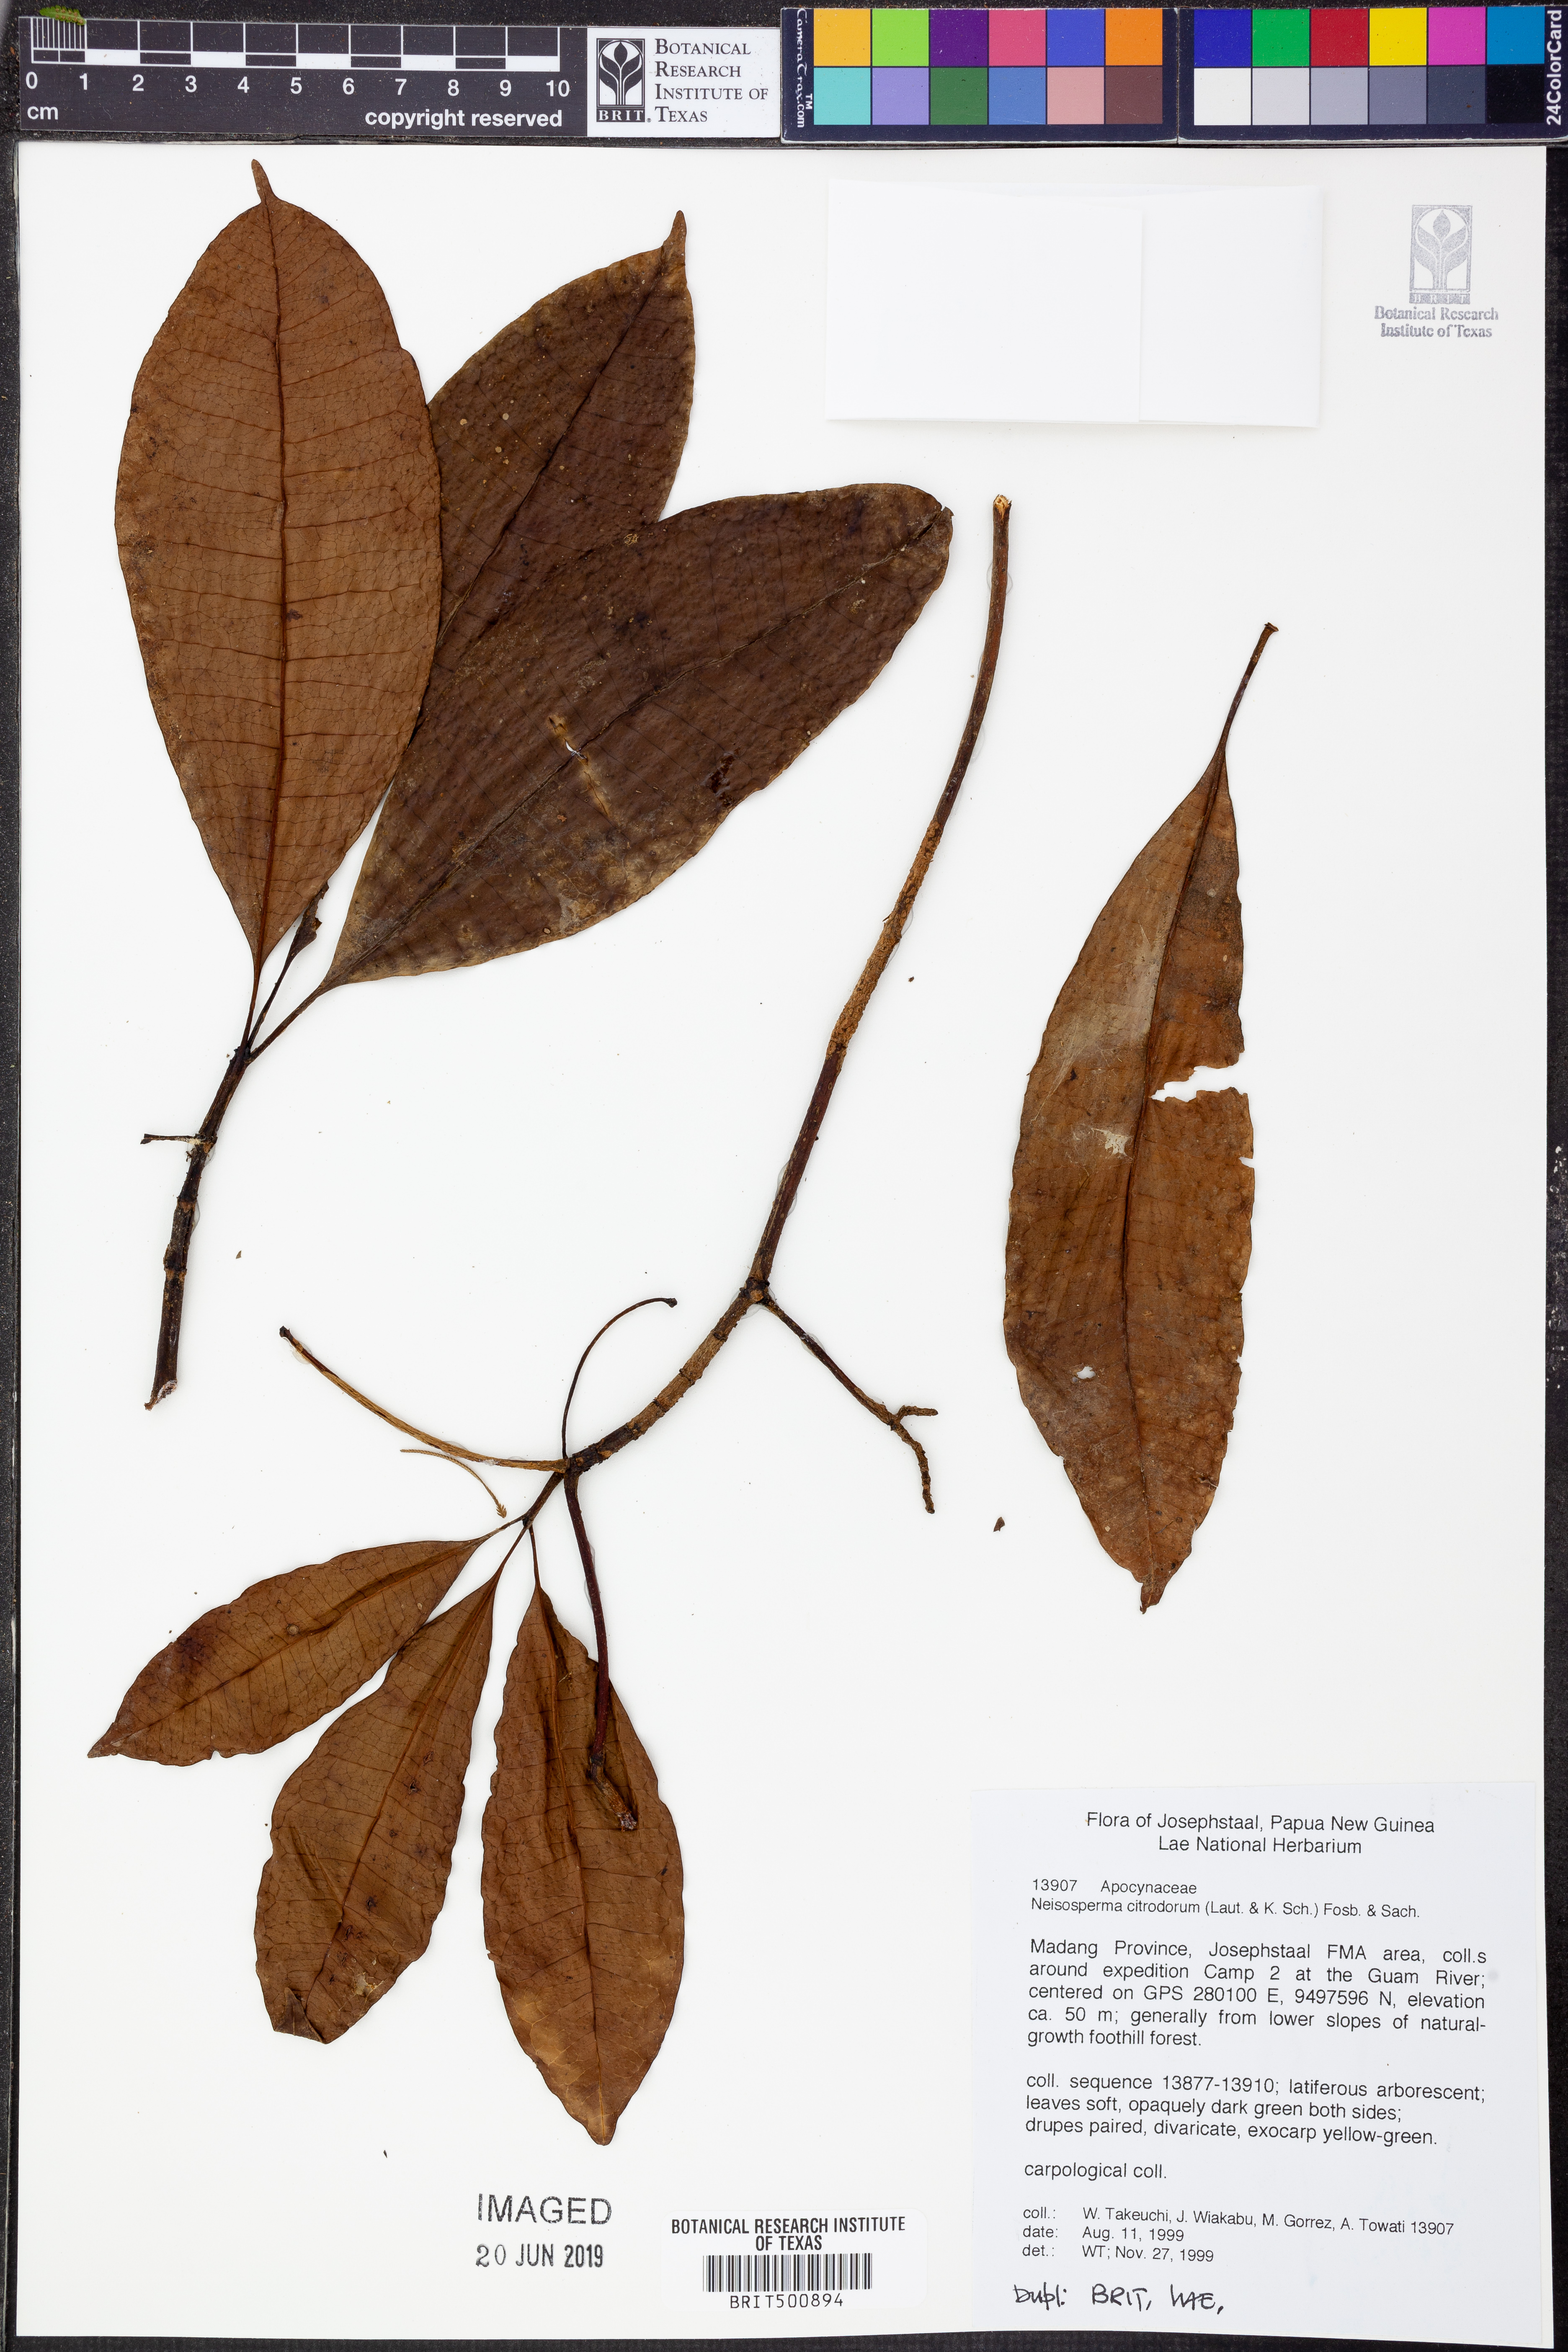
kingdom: Plantae
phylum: Tracheophyta
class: Magnoliopsida
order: Gentianales
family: Apocynaceae
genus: Ochrosia
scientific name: Ochrosia citrodora
